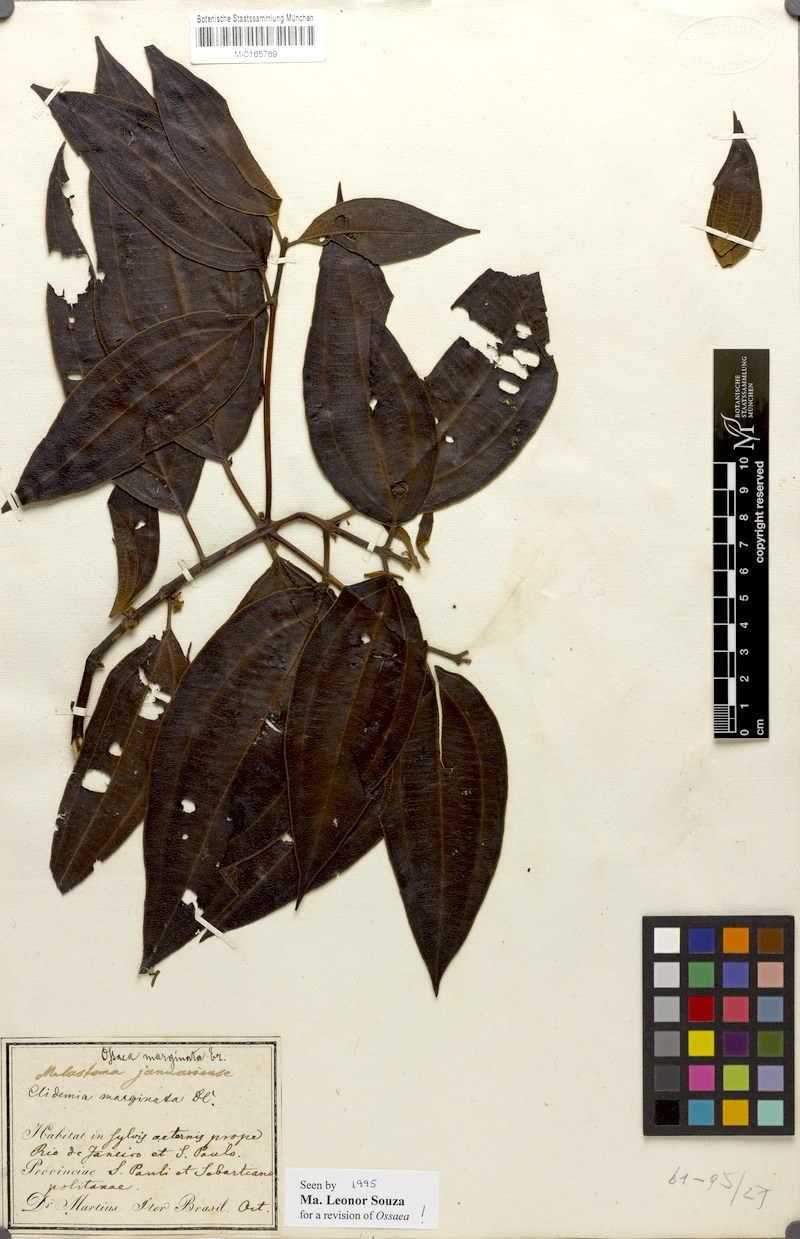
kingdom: Plantae
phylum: Tracheophyta
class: Magnoliopsida
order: Myrtales
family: Melastomataceae
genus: Miconia
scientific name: Miconia leamarginata
